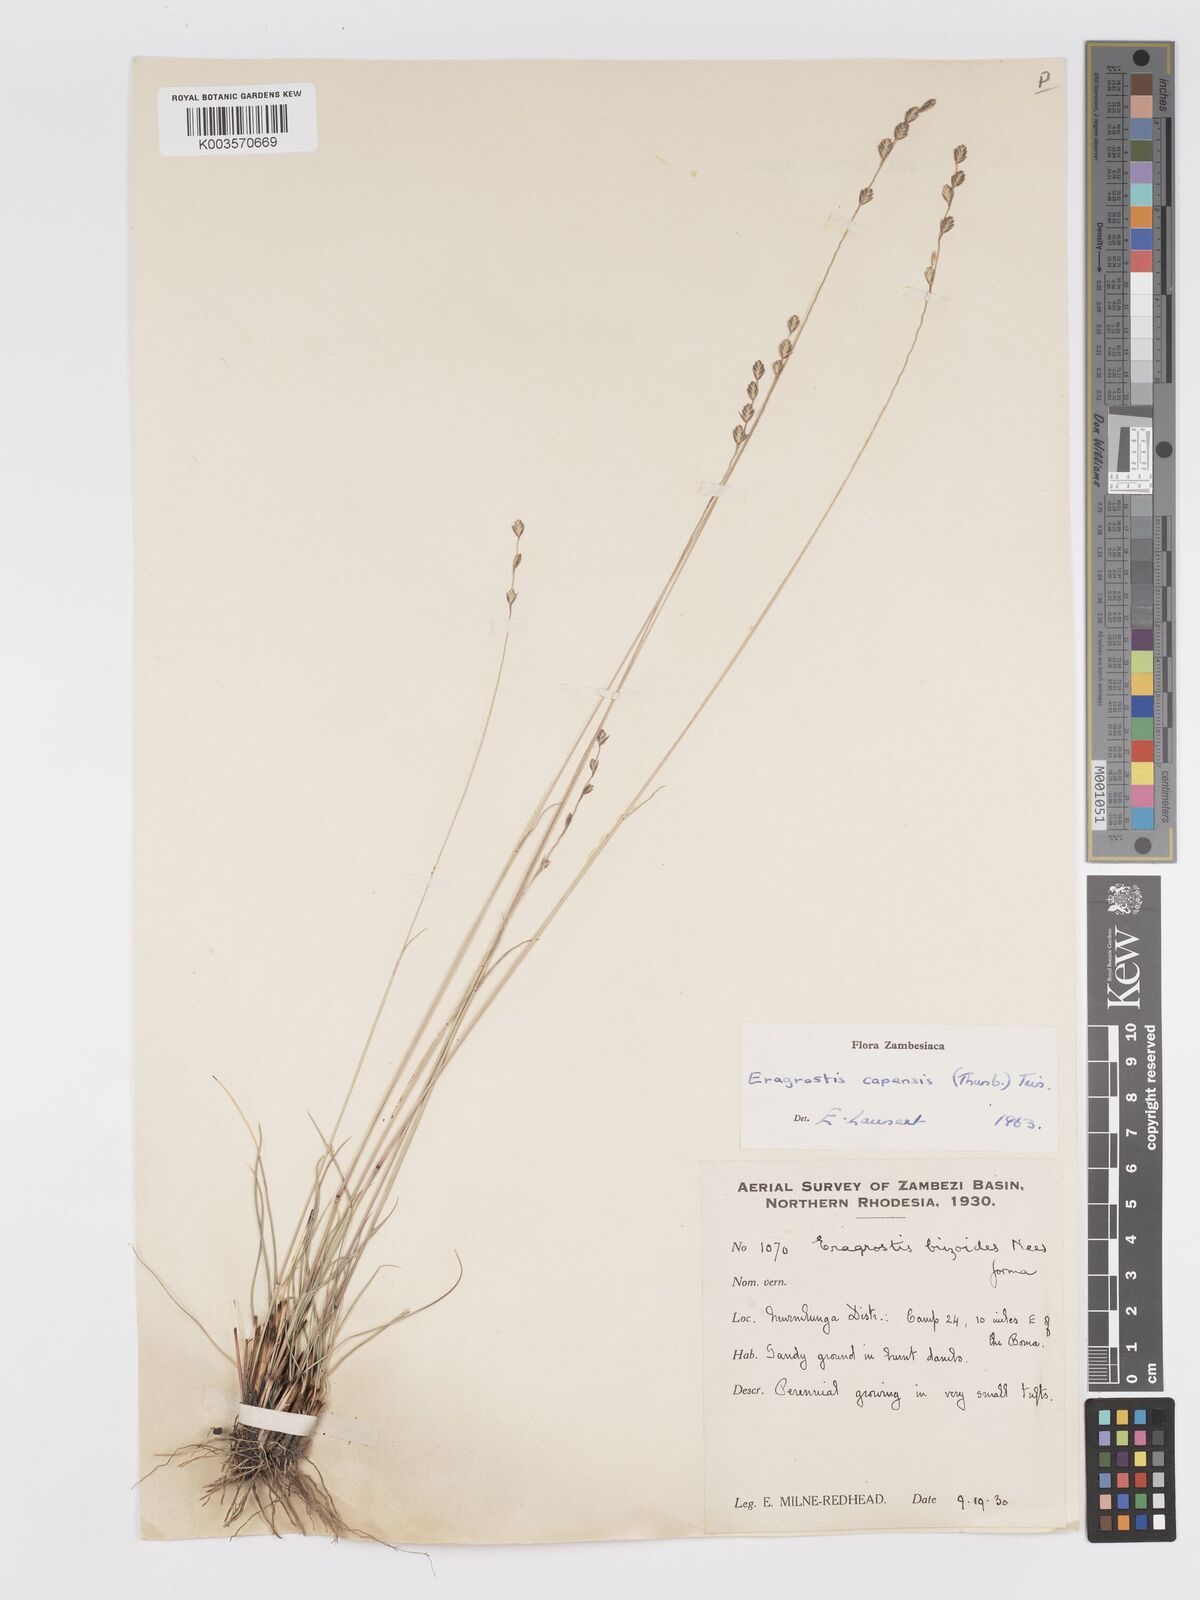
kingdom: Plantae
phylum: Tracheophyta
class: Liliopsida
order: Poales
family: Poaceae
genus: Eragrostis
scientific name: Eragrostis capensis
